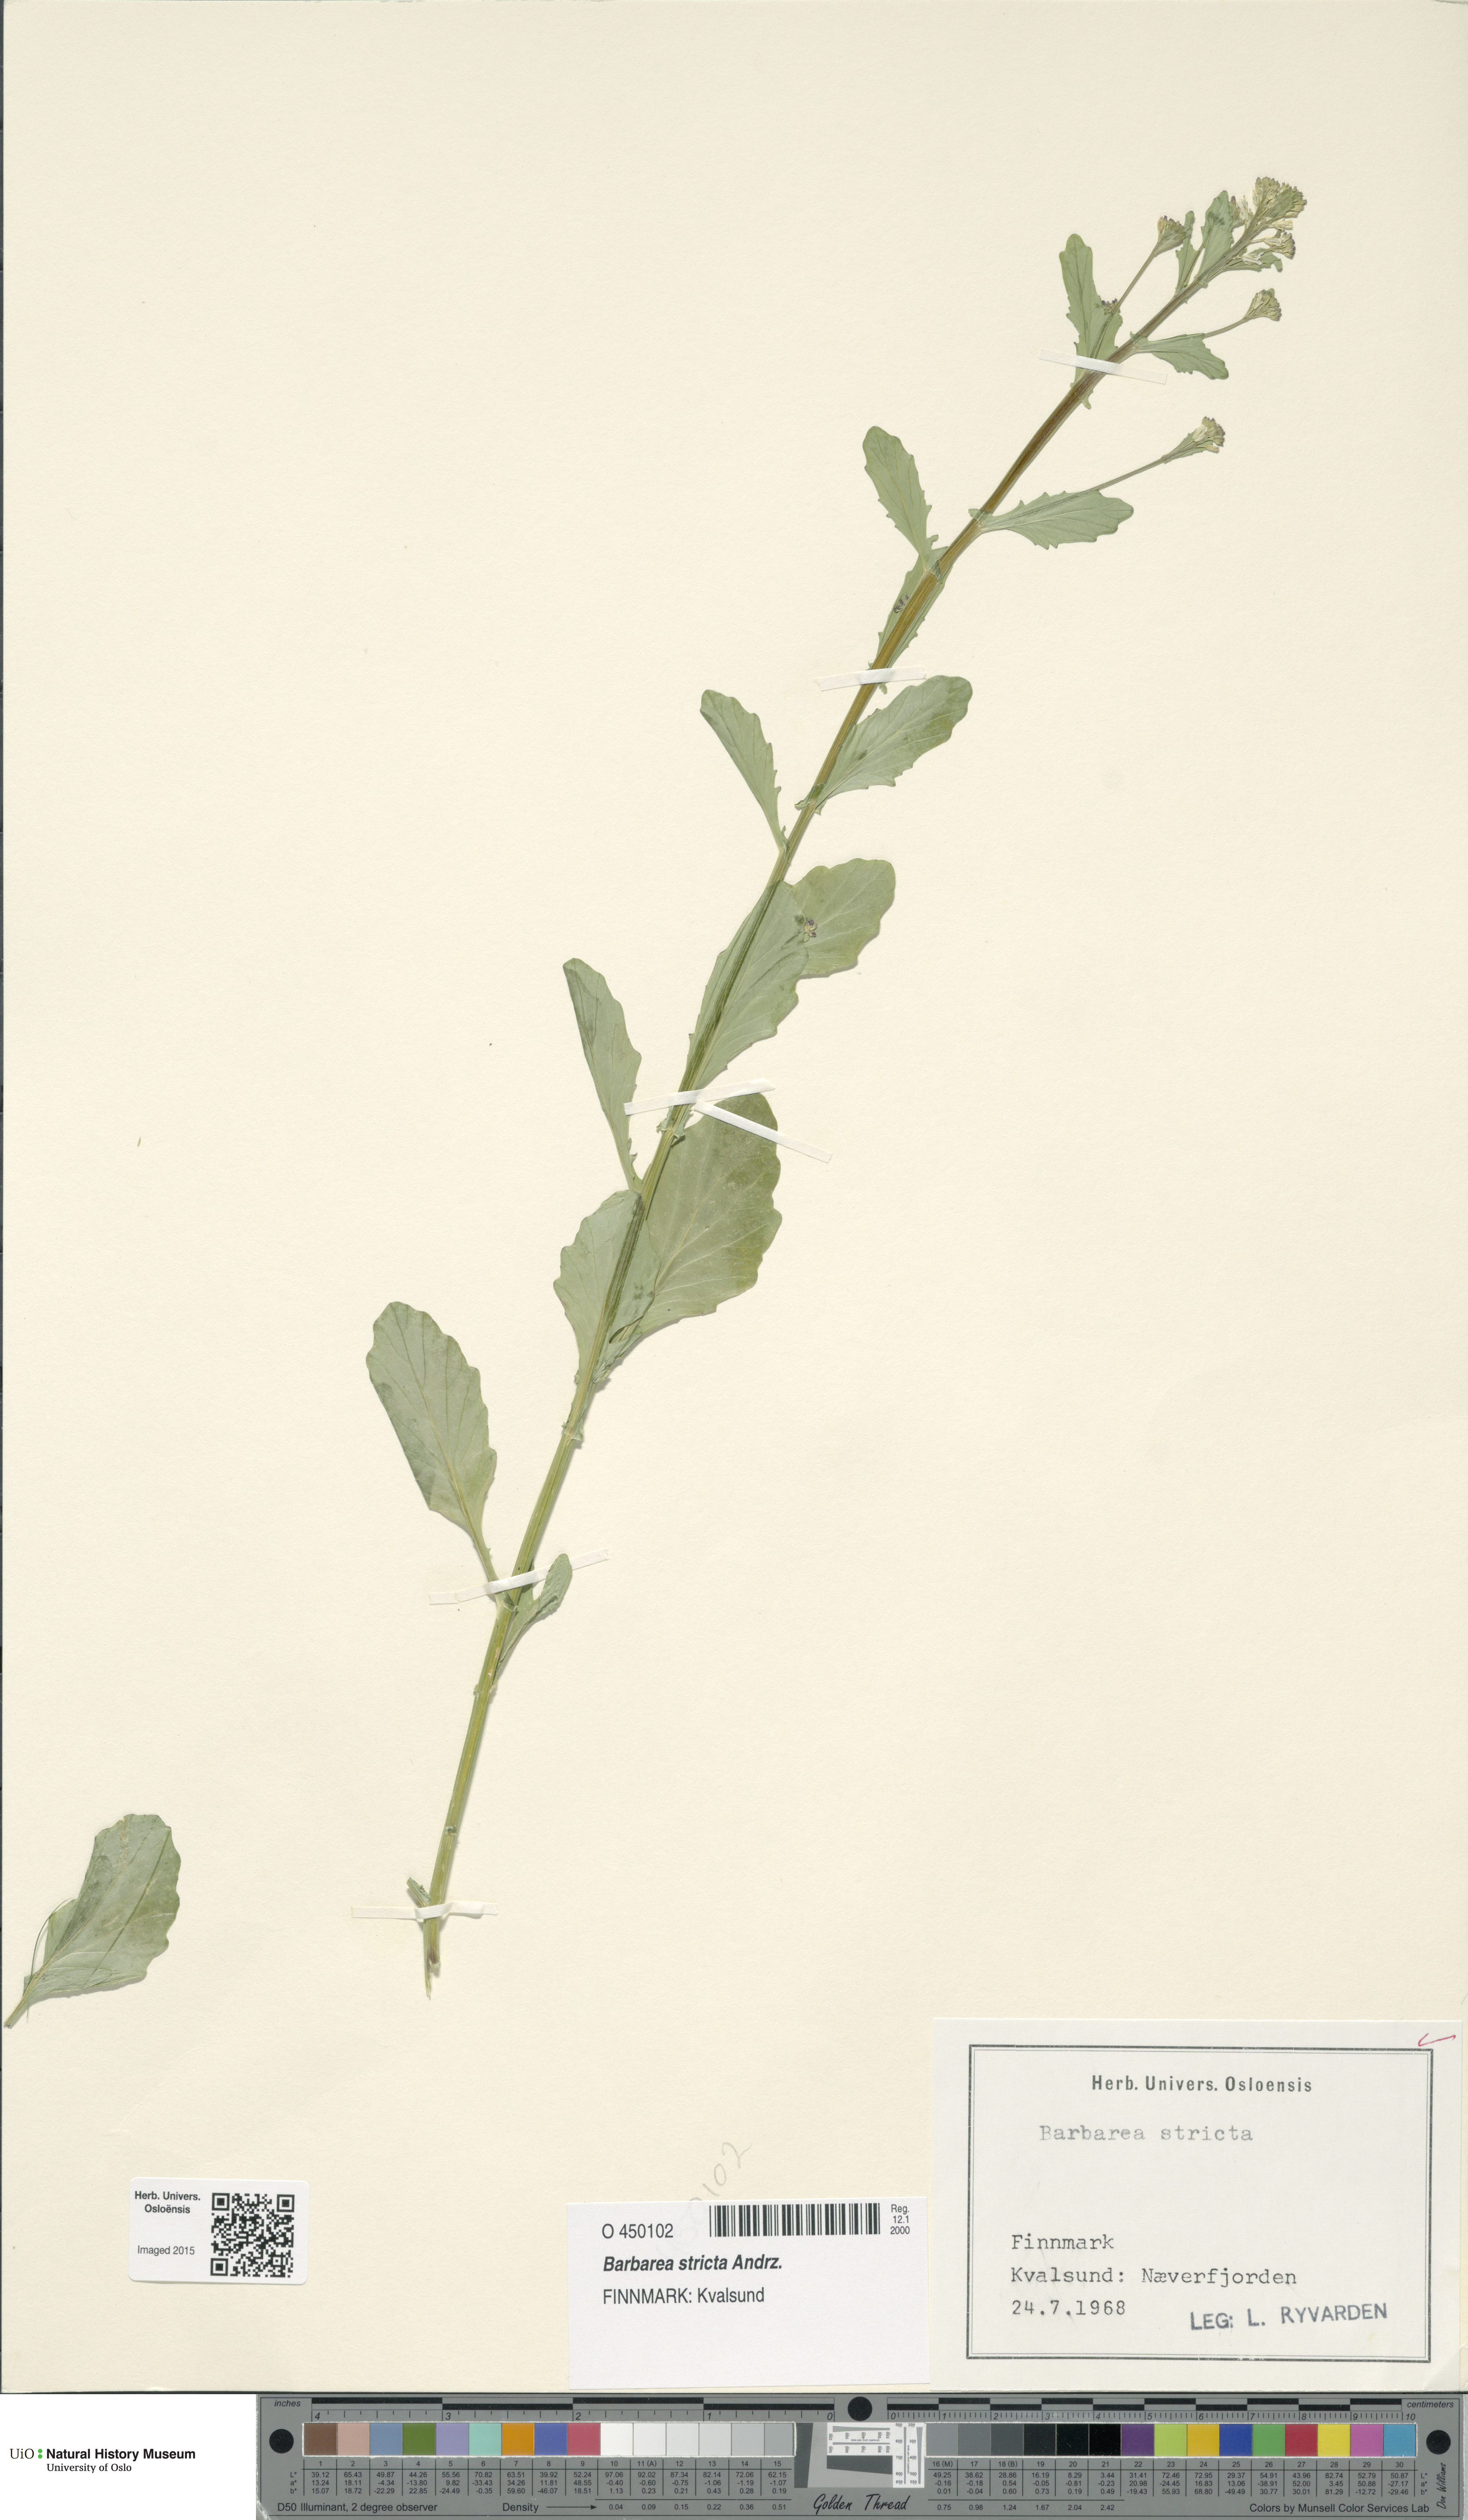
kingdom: Plantae
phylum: Tracheophyta
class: Magnoliopsida
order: Brassicales
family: Brassicaceae
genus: Barbarea
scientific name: Barbarea stricta
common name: Small-flowered winter-cress
